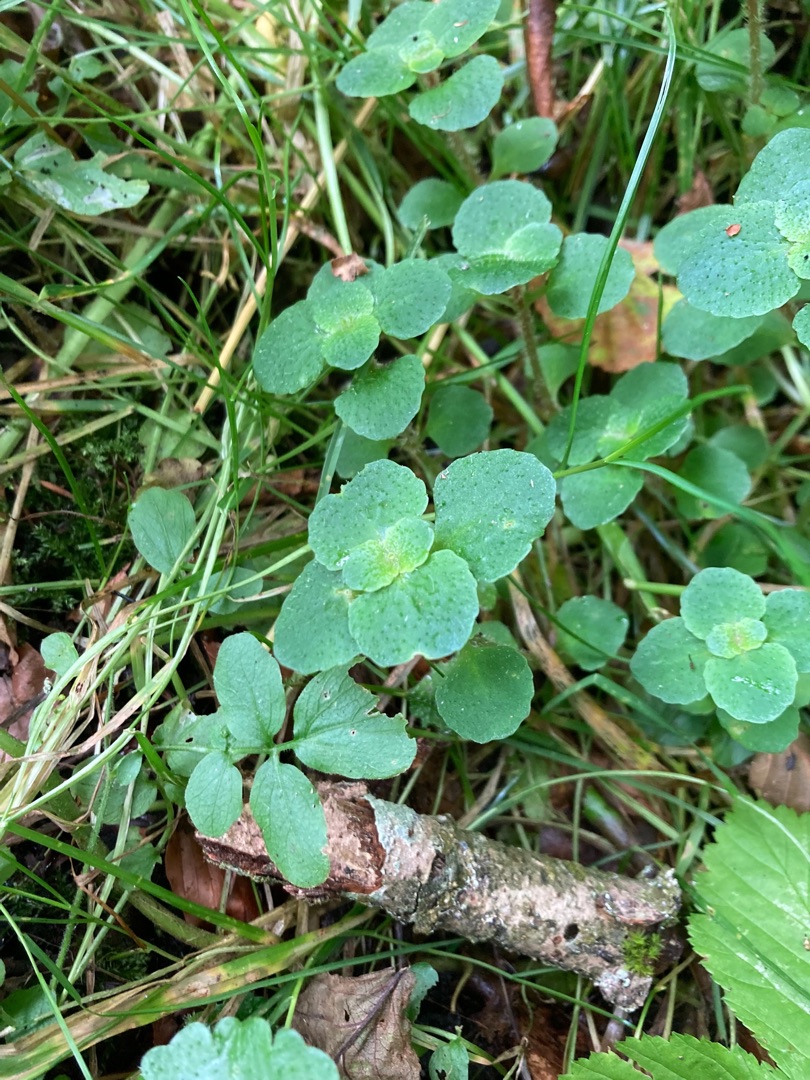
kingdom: Plantae
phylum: Tracheophyta
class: Magnoliopsida
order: Saxifragales
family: Saxifragaceae
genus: Chrysosplenium
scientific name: Chrysosplenium oppositifolium
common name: Småbladet milturt
